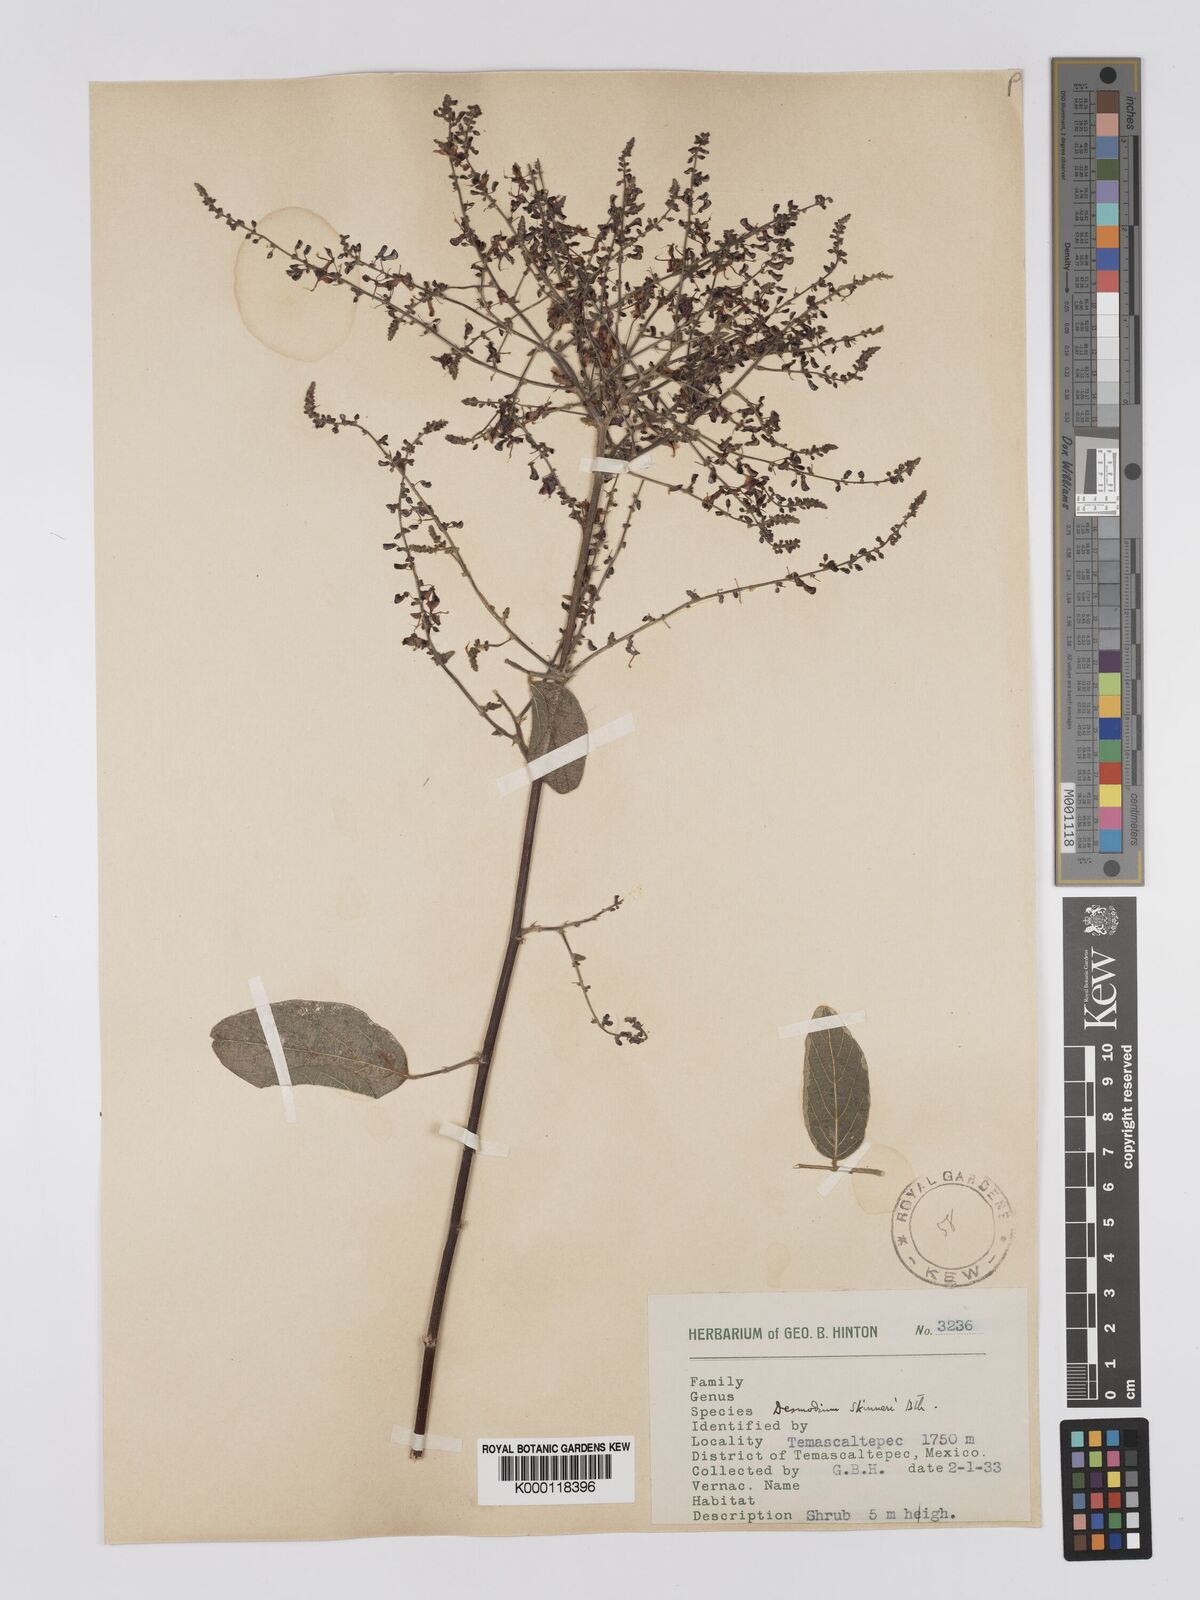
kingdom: Plantae
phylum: Tracheophyta
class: Magnoliopsida
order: Fabales
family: Fabaceae
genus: Desmodium
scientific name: Desmodium skinneri
